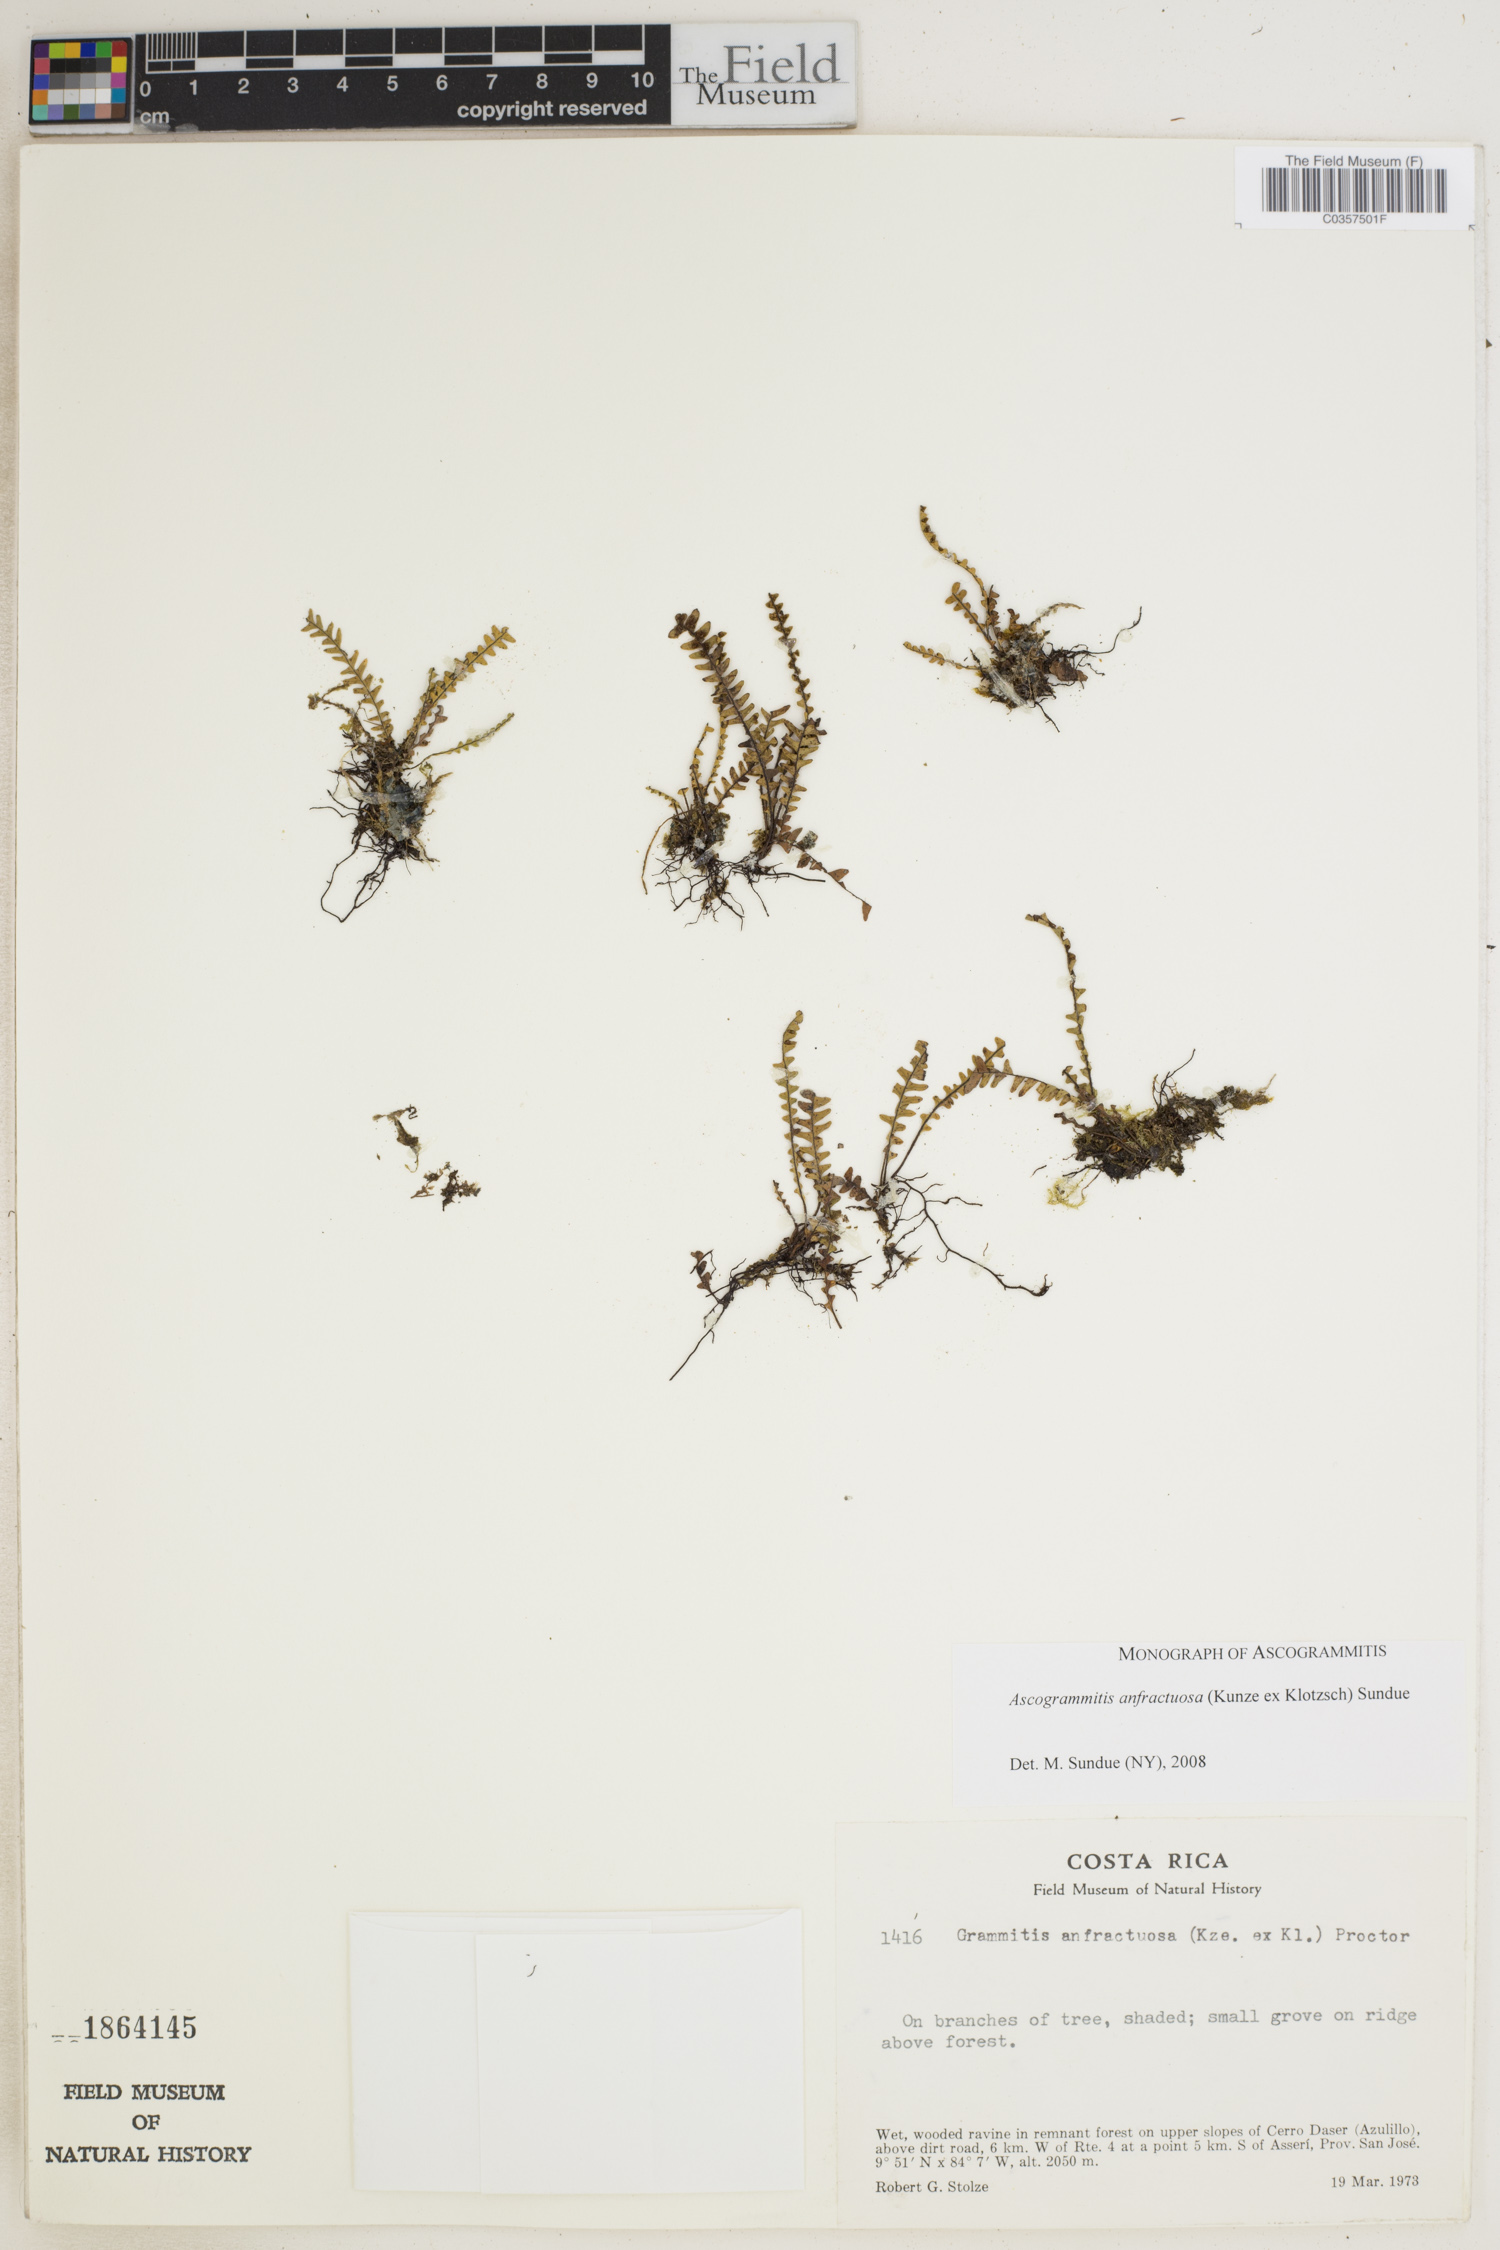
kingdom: Plantae
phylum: Tracheophyta
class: Polypodiopsida
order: Polypodiales
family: Polypodiaceae
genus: Ascogrammitis
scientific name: Ascogrammitis anfractuosa
